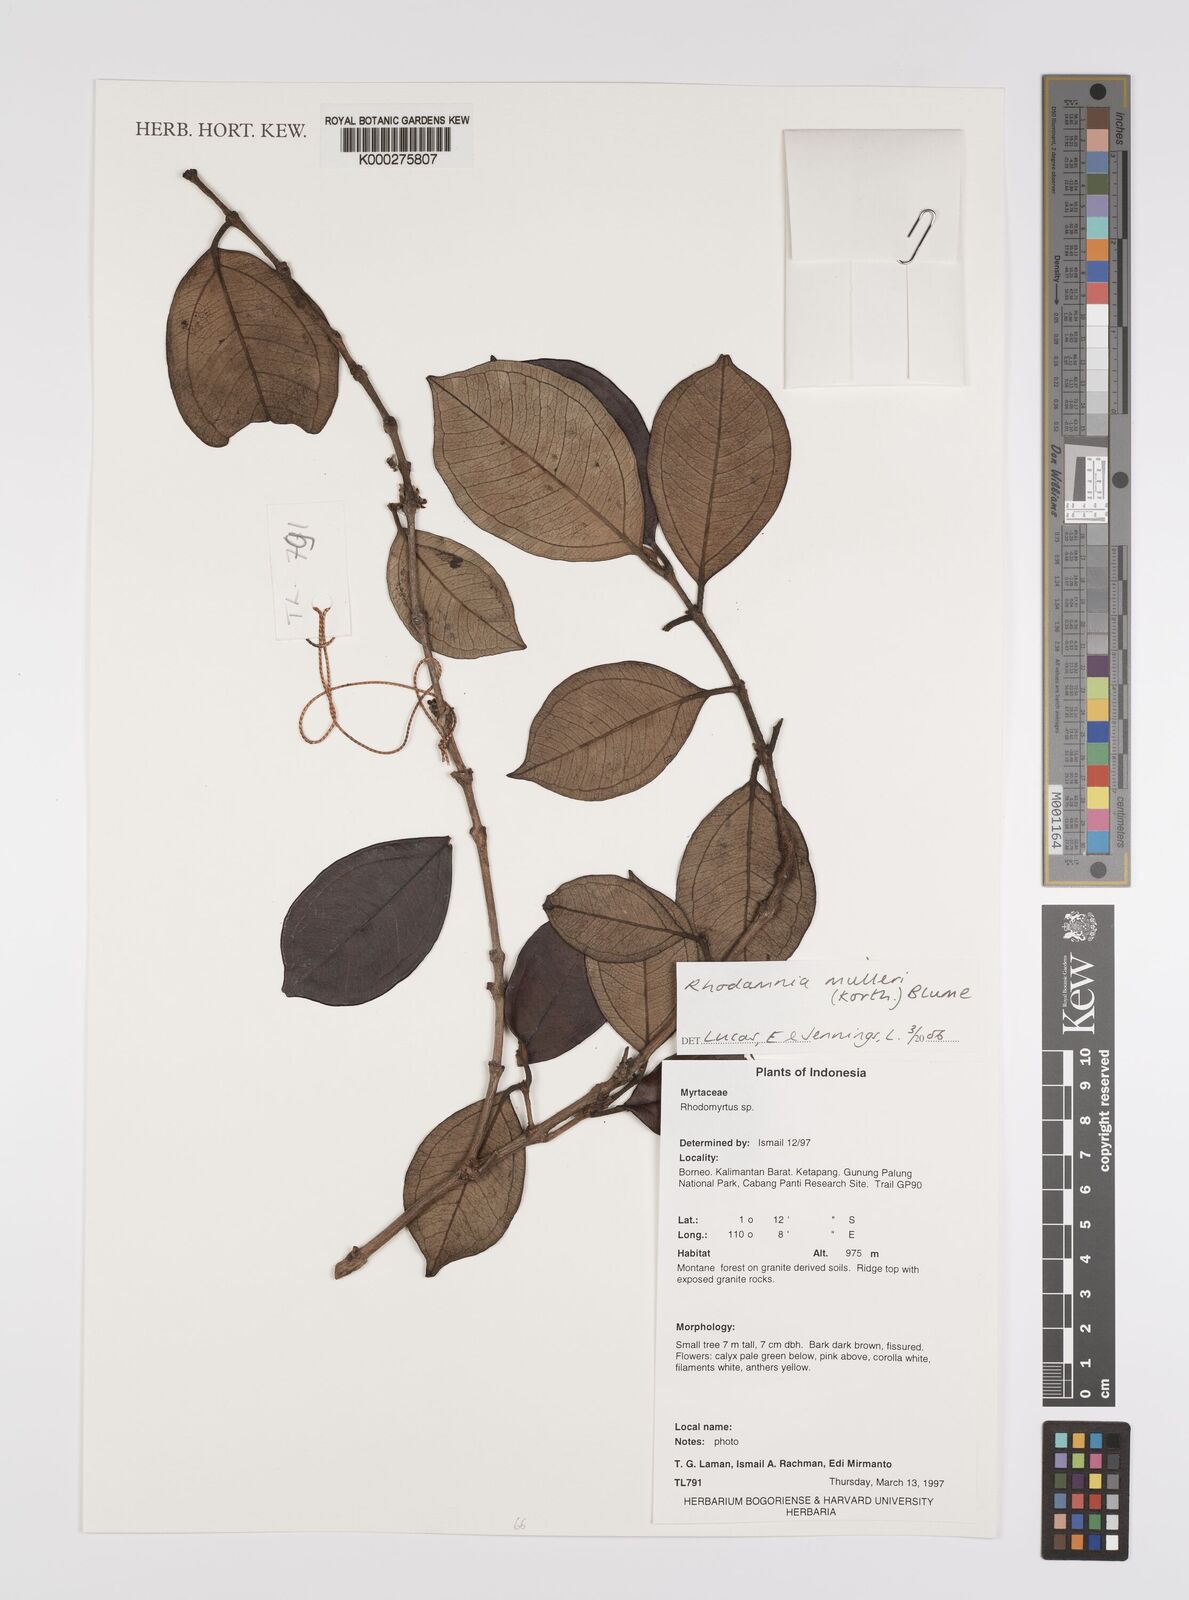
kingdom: Plantae
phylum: Tracheophyta
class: Magnoliopsida
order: Myrtales
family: Myrtaceae
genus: Rhodamnia
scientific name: Rhodamnia mulleri
